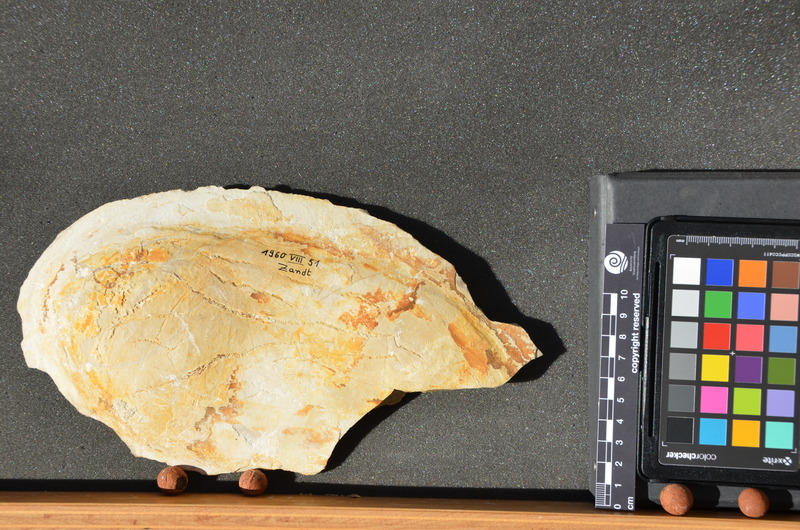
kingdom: Animalia
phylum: Chordata
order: Lepisosteiformes
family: Lepidotidae
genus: Lepidotes
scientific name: Lepidotes intermedius
